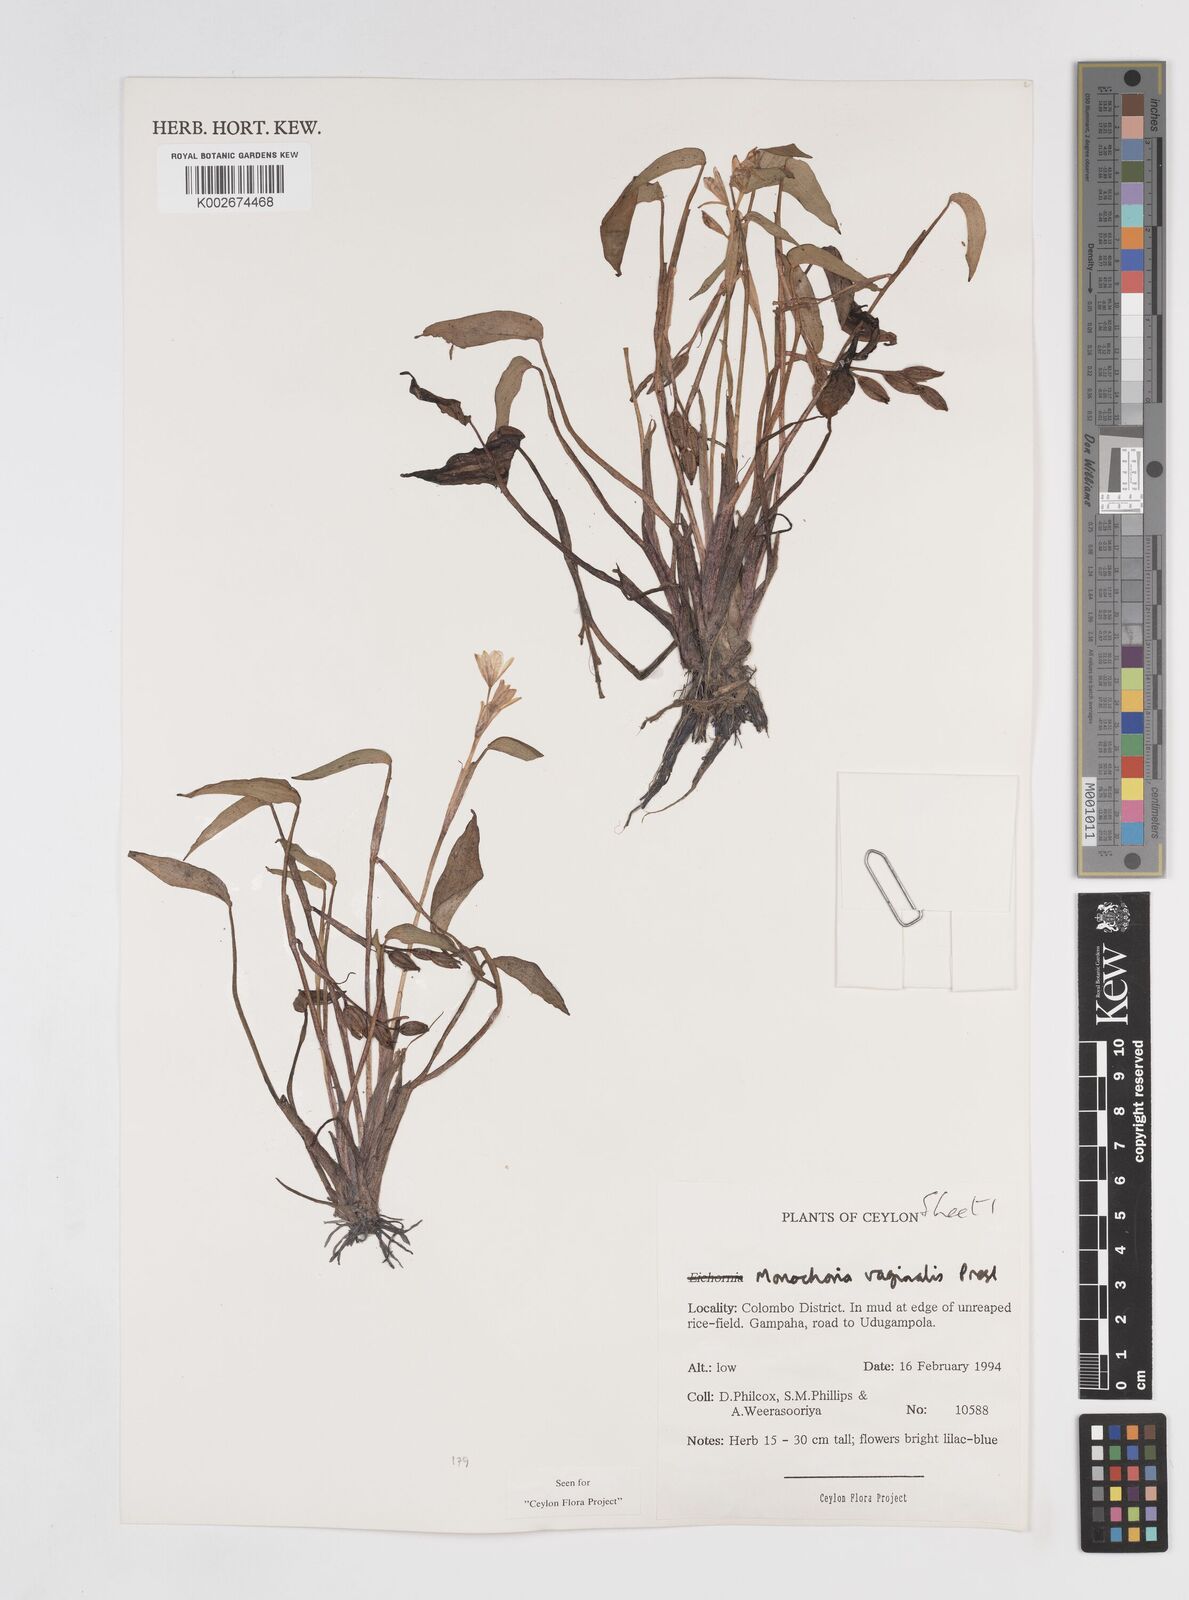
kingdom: Plantae
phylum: Tracheophyta
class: Liliopsida
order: Commelinales
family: Pontederiaceae
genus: Pontederia
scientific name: Pontederia vaginalis
